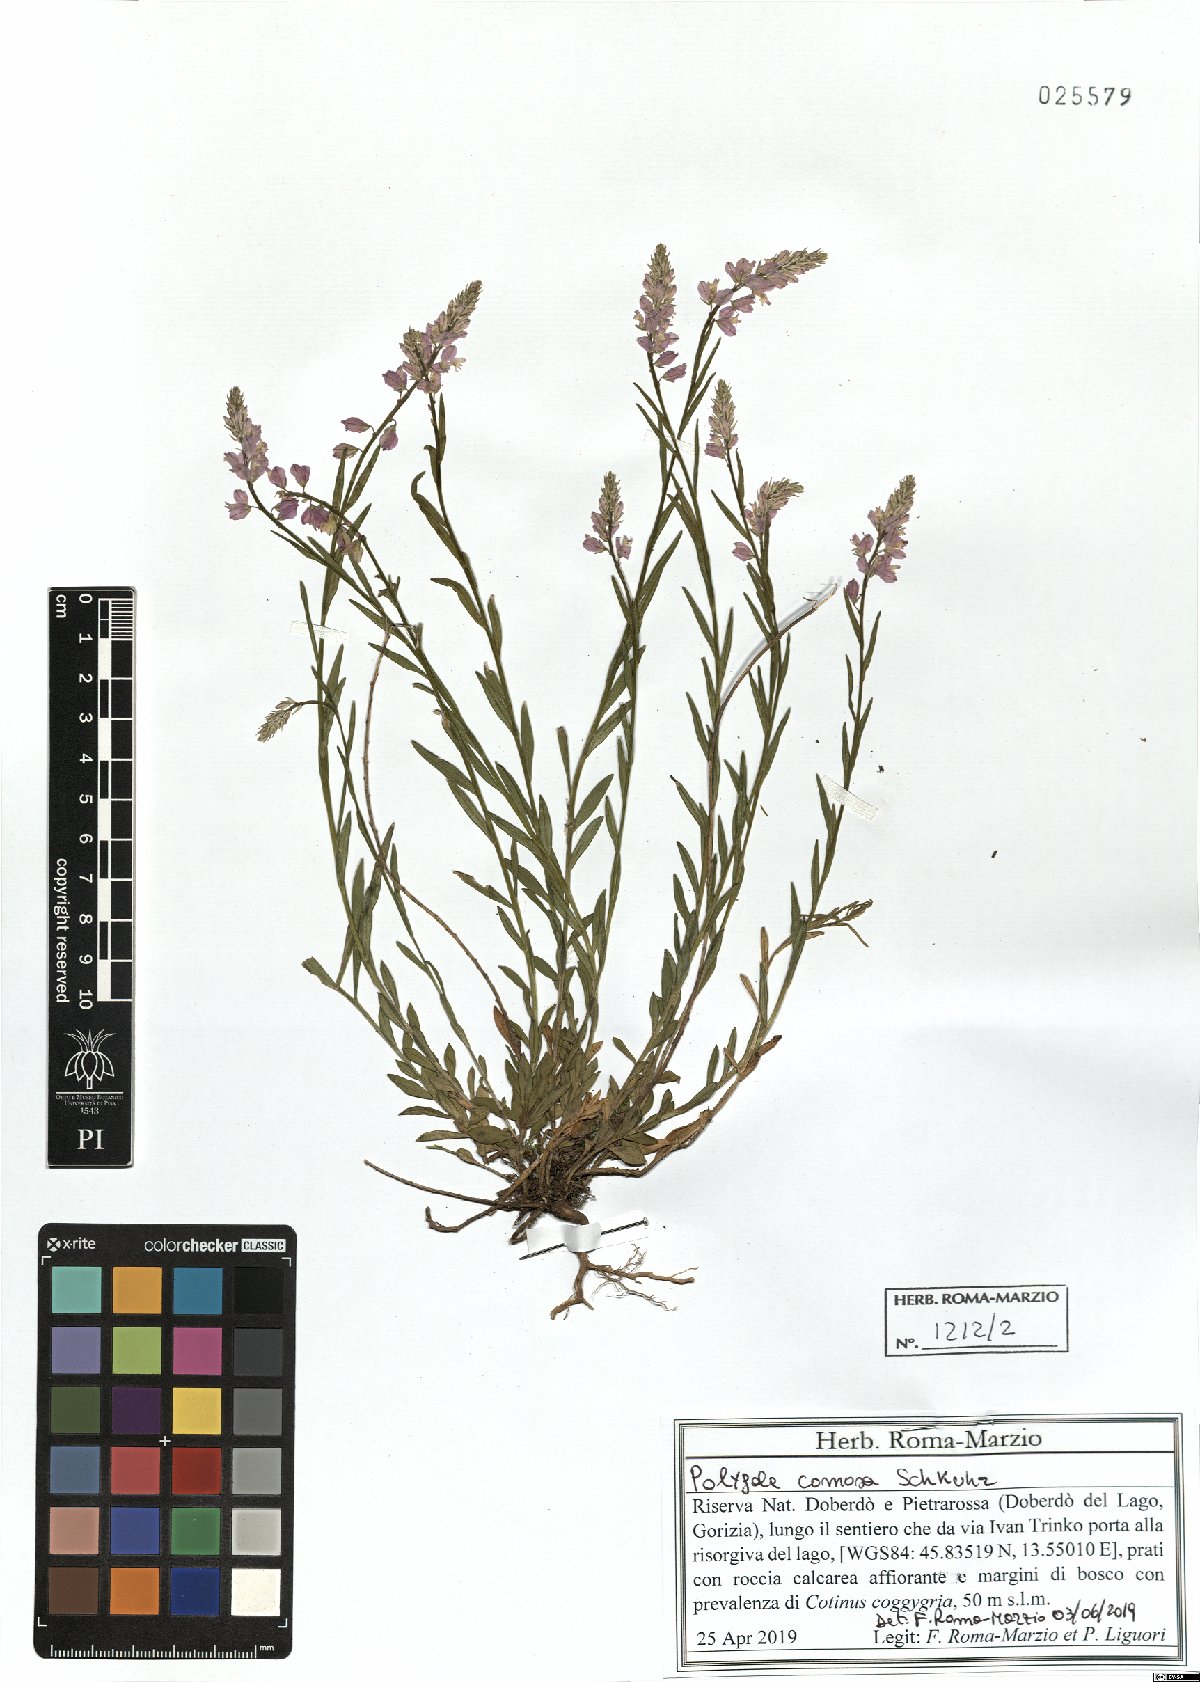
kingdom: Plantae
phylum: Tracheophyta
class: Magnoliopsida
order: Fabales
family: Polygalaceae
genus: Polygala
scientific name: Polygala comosa
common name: Tufted milkwort
